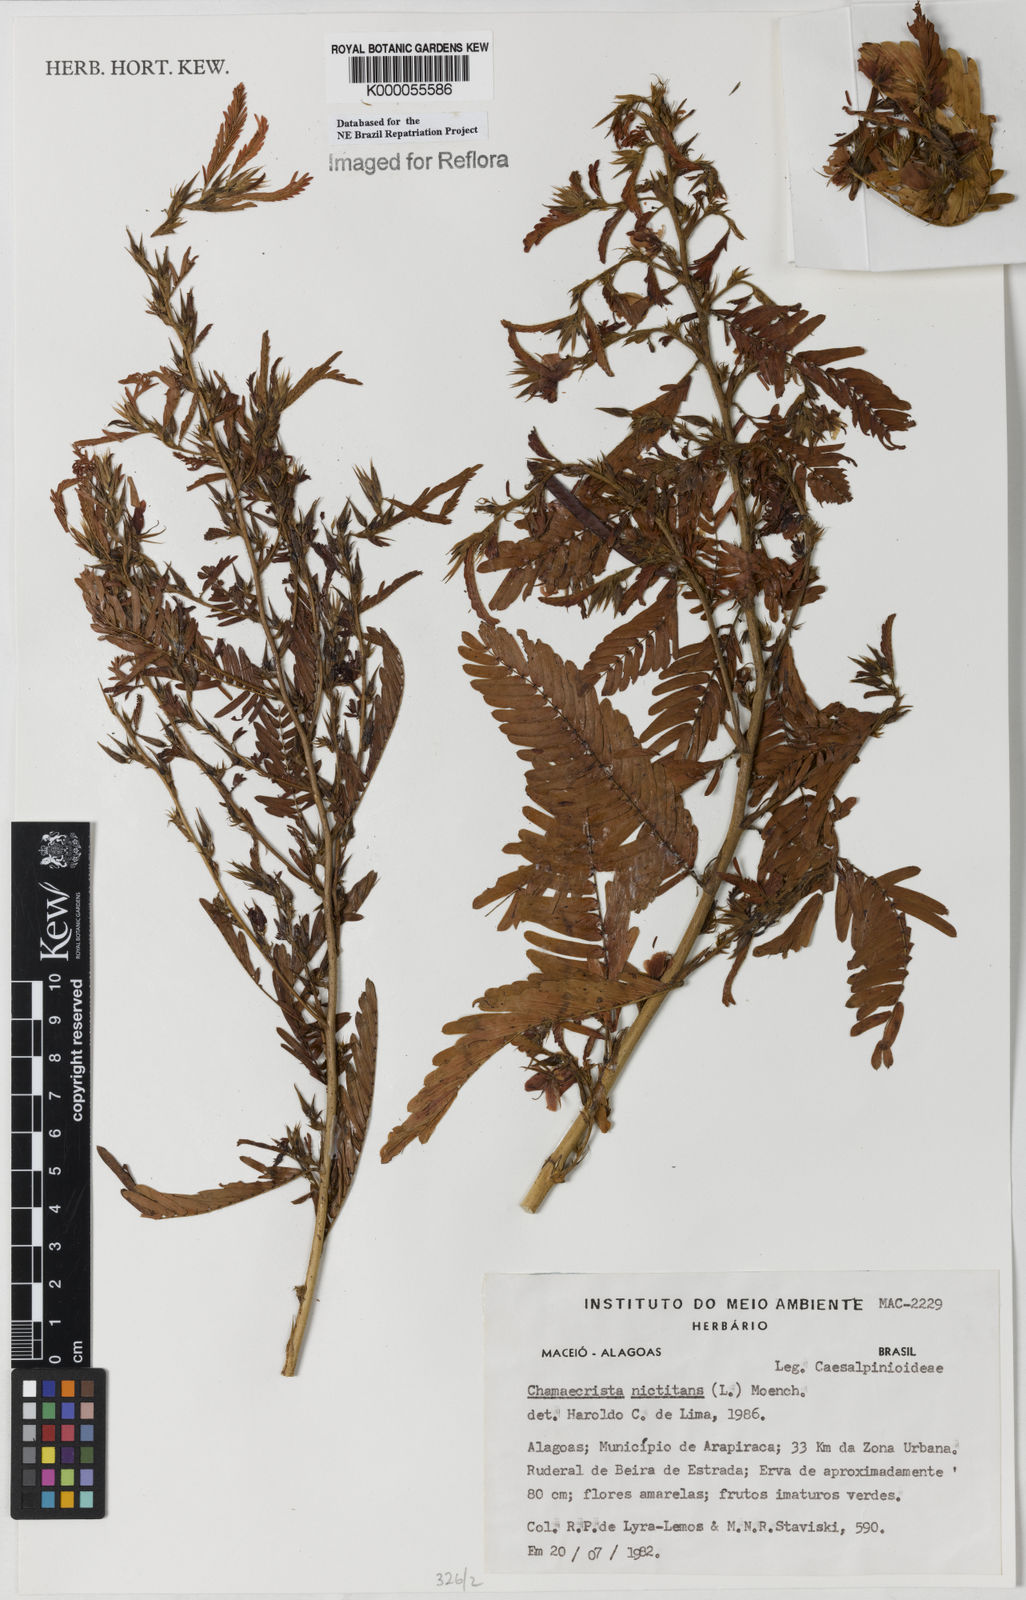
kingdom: Plantae
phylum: Tracheophyta
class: Magnoliopsida
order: Fabales
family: Fabaceae
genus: Chamaecrista
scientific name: Chamaecrista nictitans
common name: Sensitive cassia
